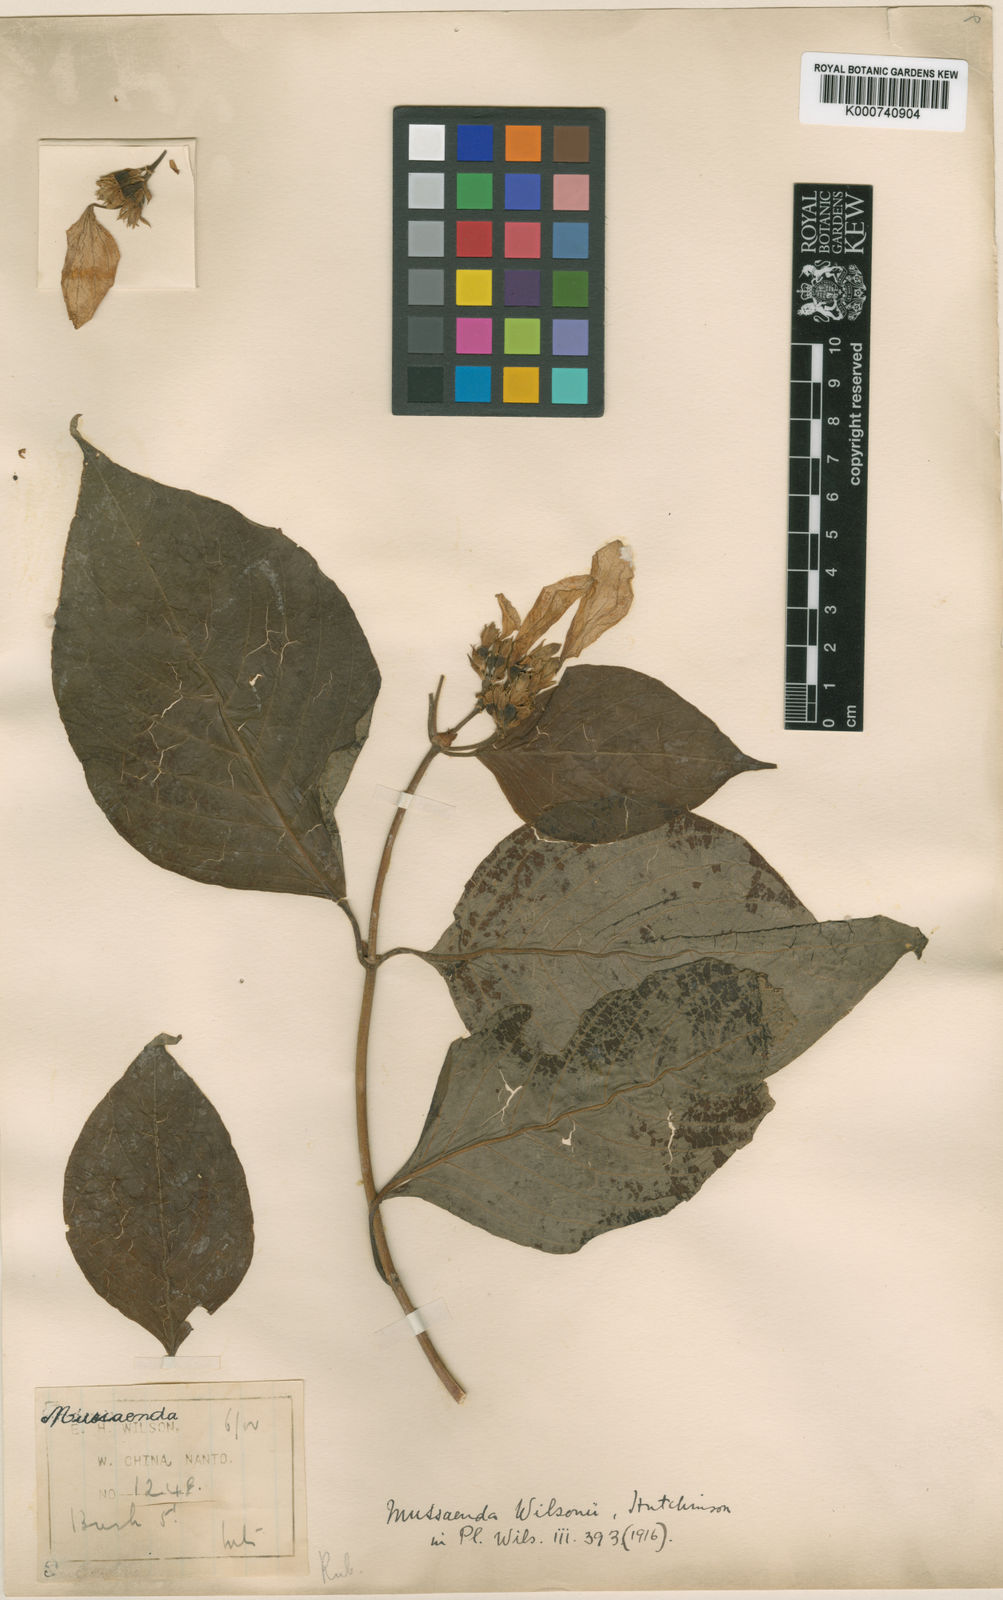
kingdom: Plantae
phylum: Tracheophyta
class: Magnoliopsida
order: Gentianales
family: Rubiaceae
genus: Mussaenda
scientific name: Mussaenda shikokiana
